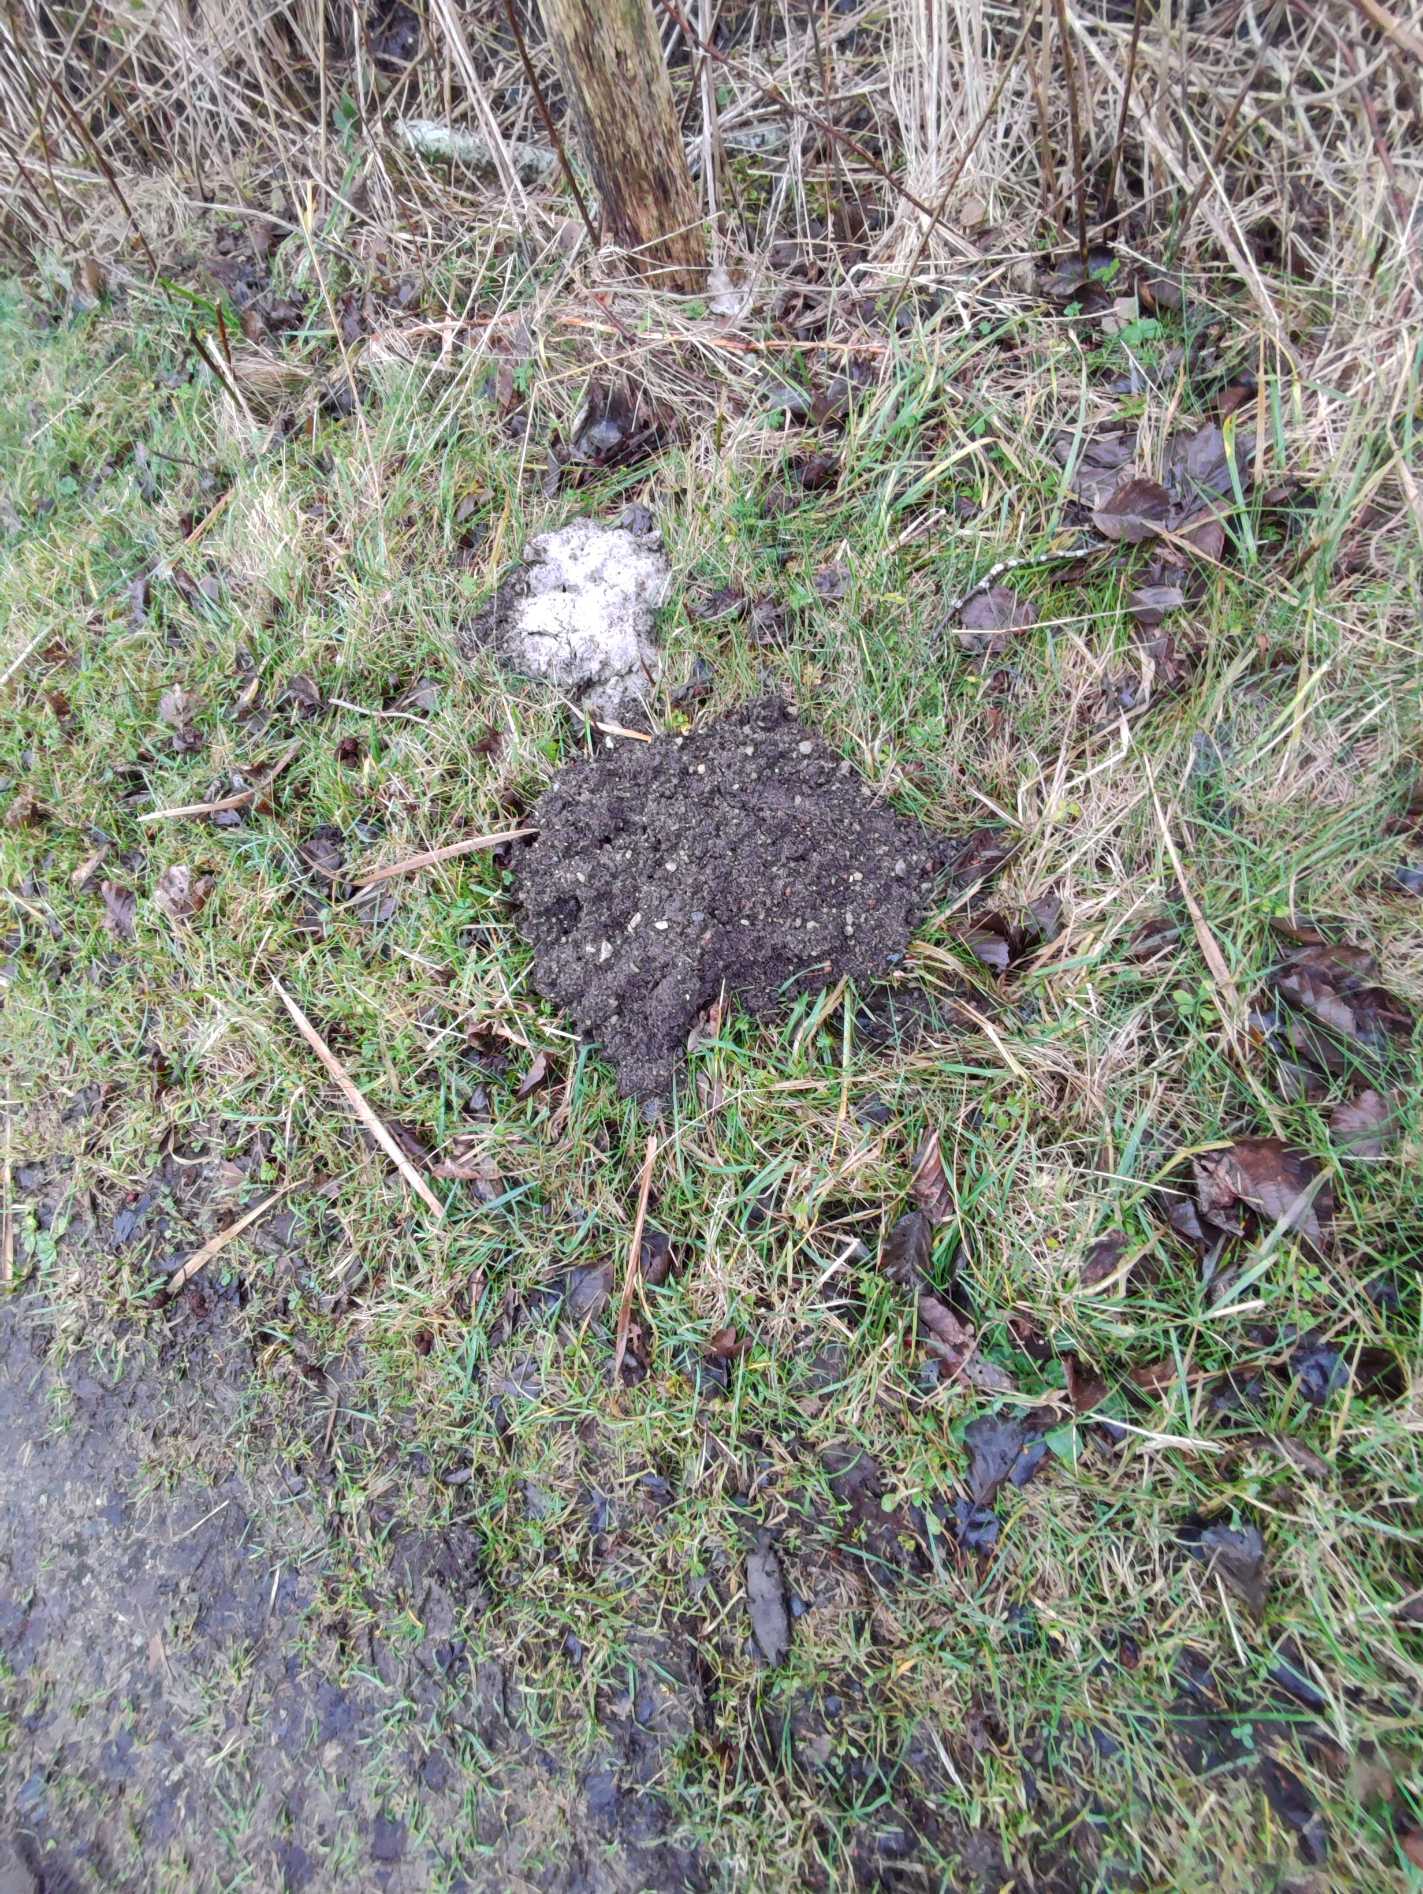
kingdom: Animalia
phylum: Chordata
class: Mammalia
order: Soricomorpha
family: Talpidae
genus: Talpa
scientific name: Talpa europaea
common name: Muldvarp
